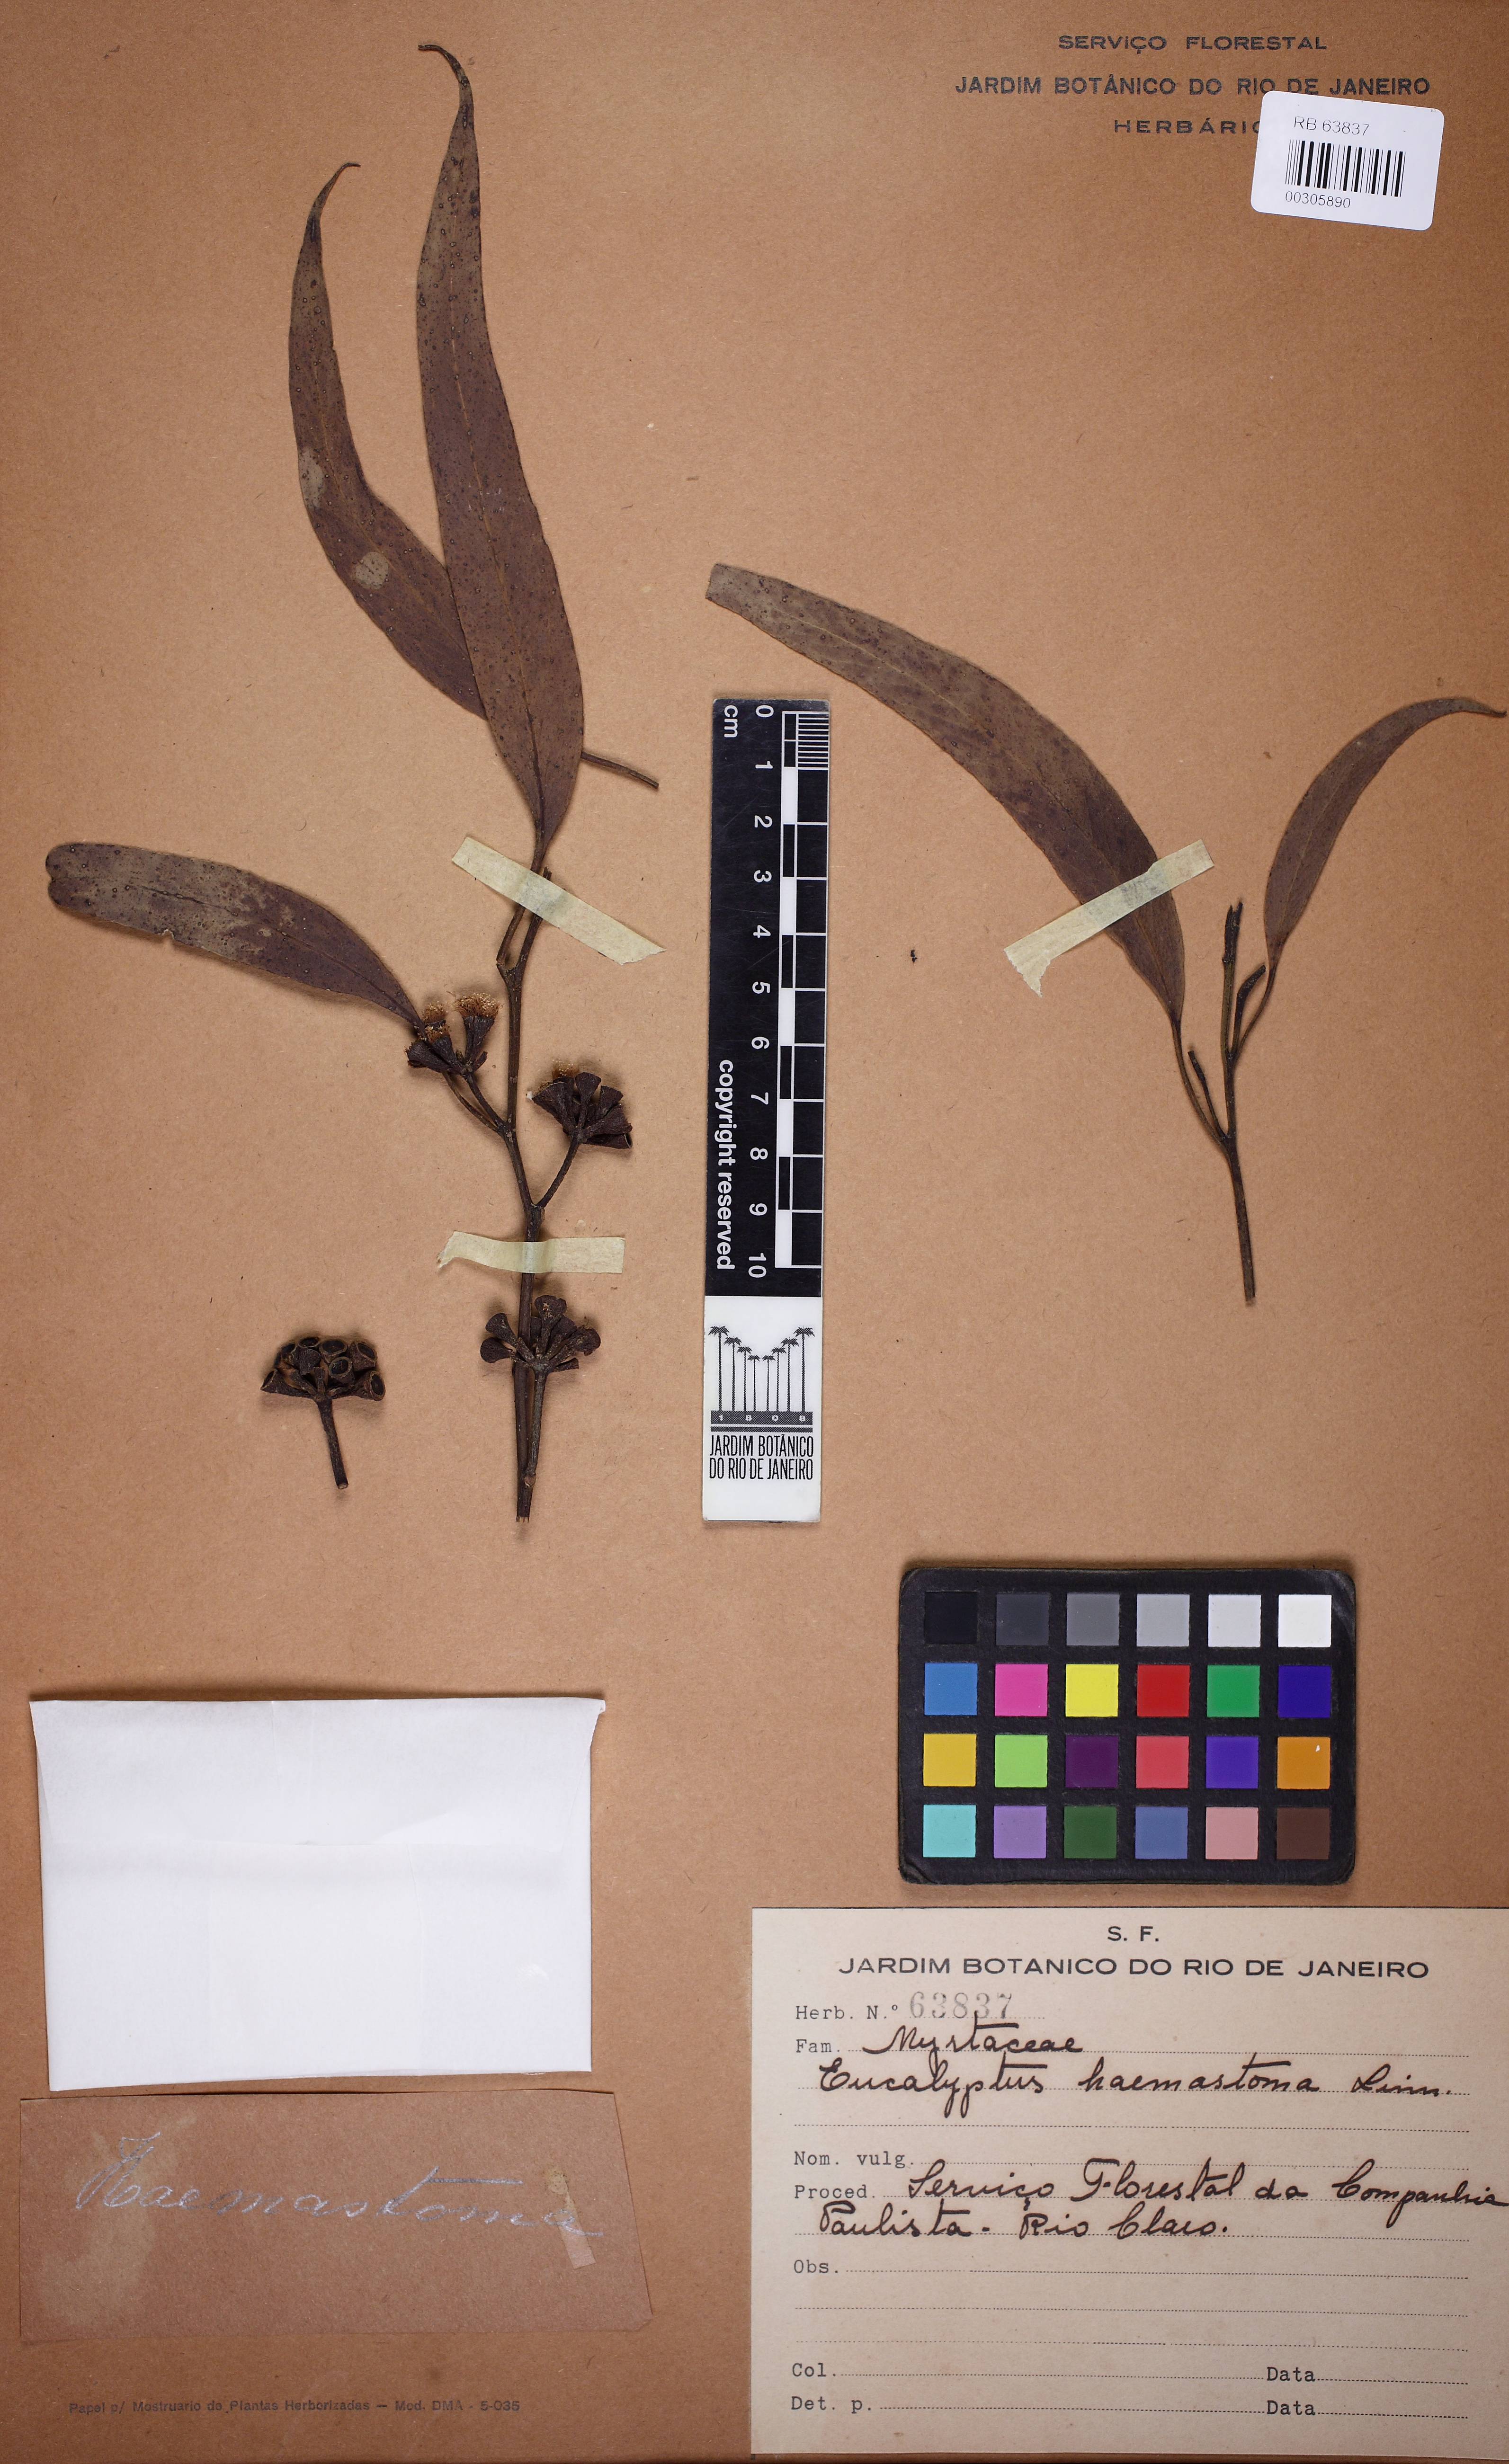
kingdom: Plantae
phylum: Tracheophyta
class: Magnoliopsida
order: Myrtales
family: Myrtaceae
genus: Eucalyptus
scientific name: Eucalyptus haemastoma
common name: Scribbly-gum
